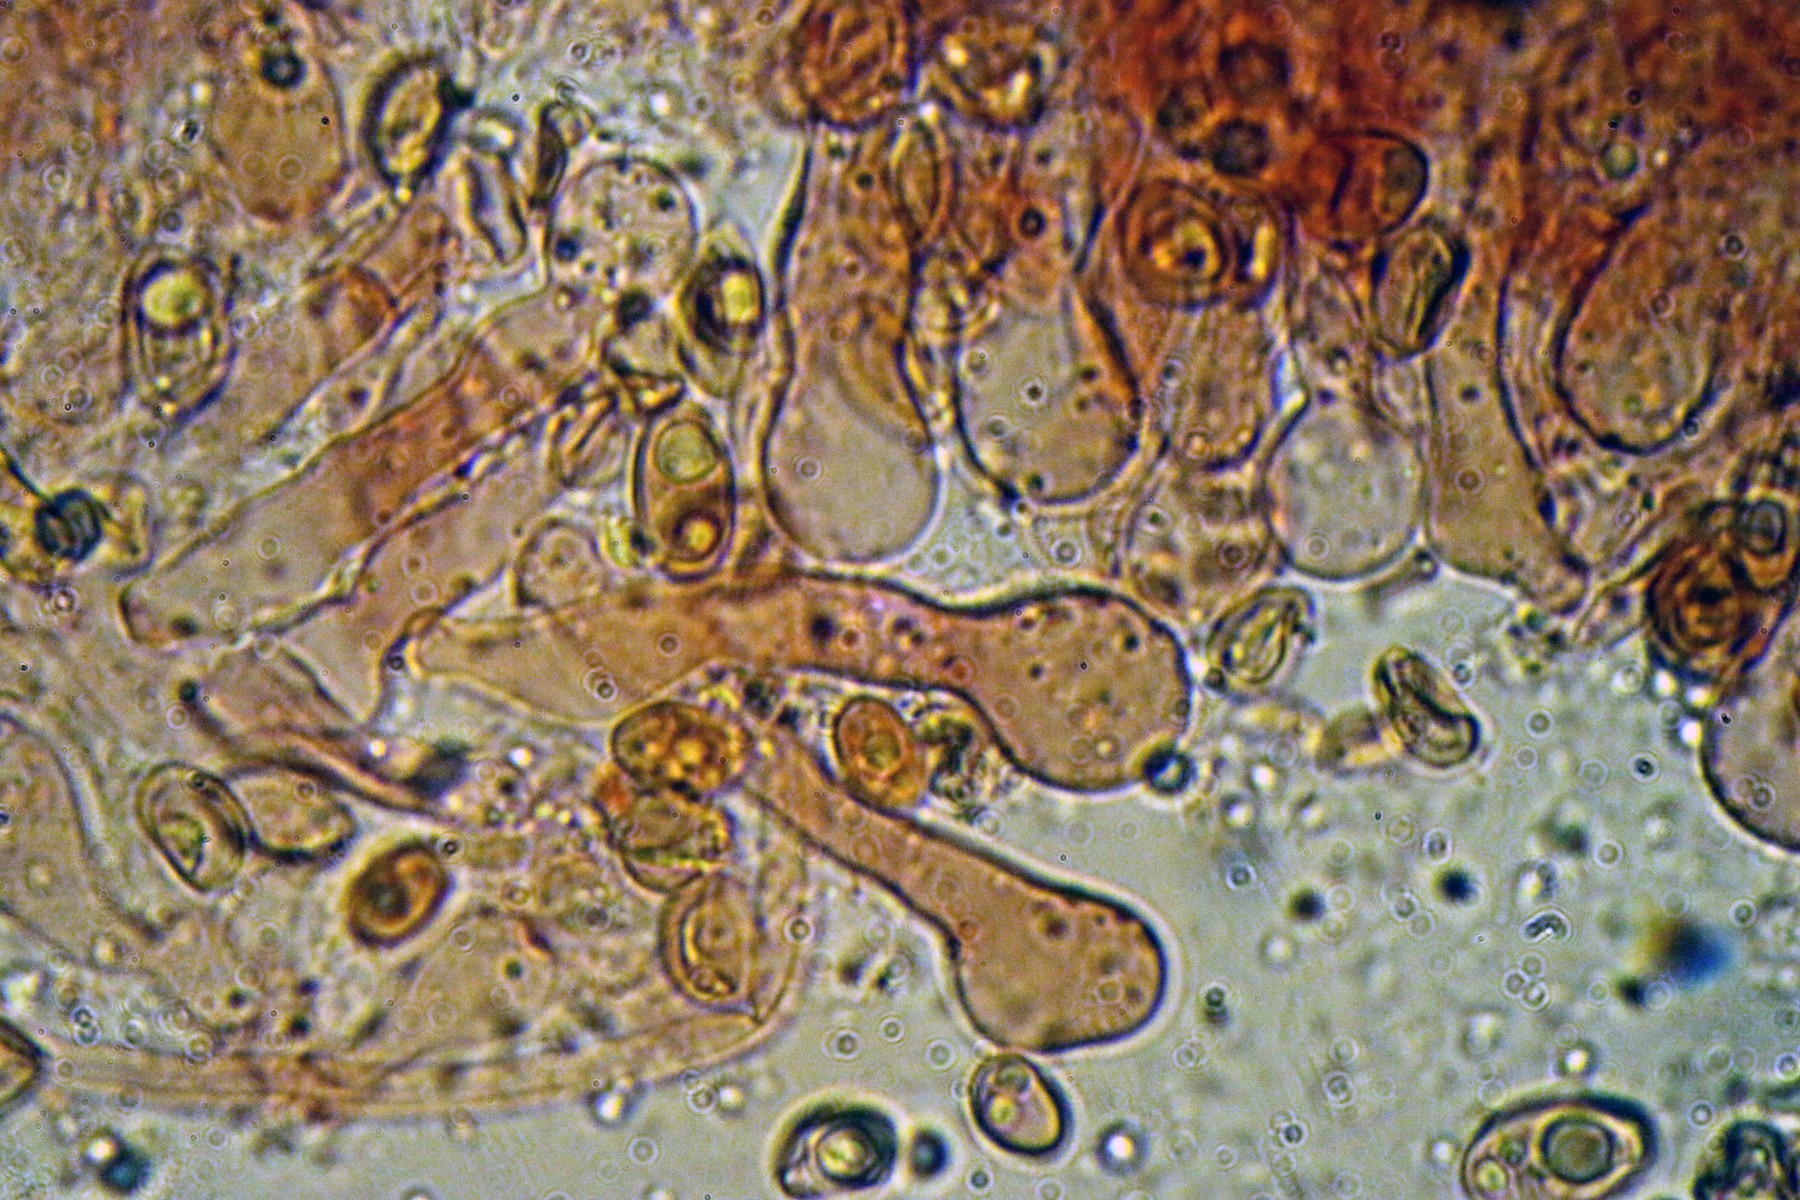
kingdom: Fungi
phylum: Basidiomycota
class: Agaricomycetes
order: Agaricales
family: Hymenogastraceae
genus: Galerina
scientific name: Galerina
